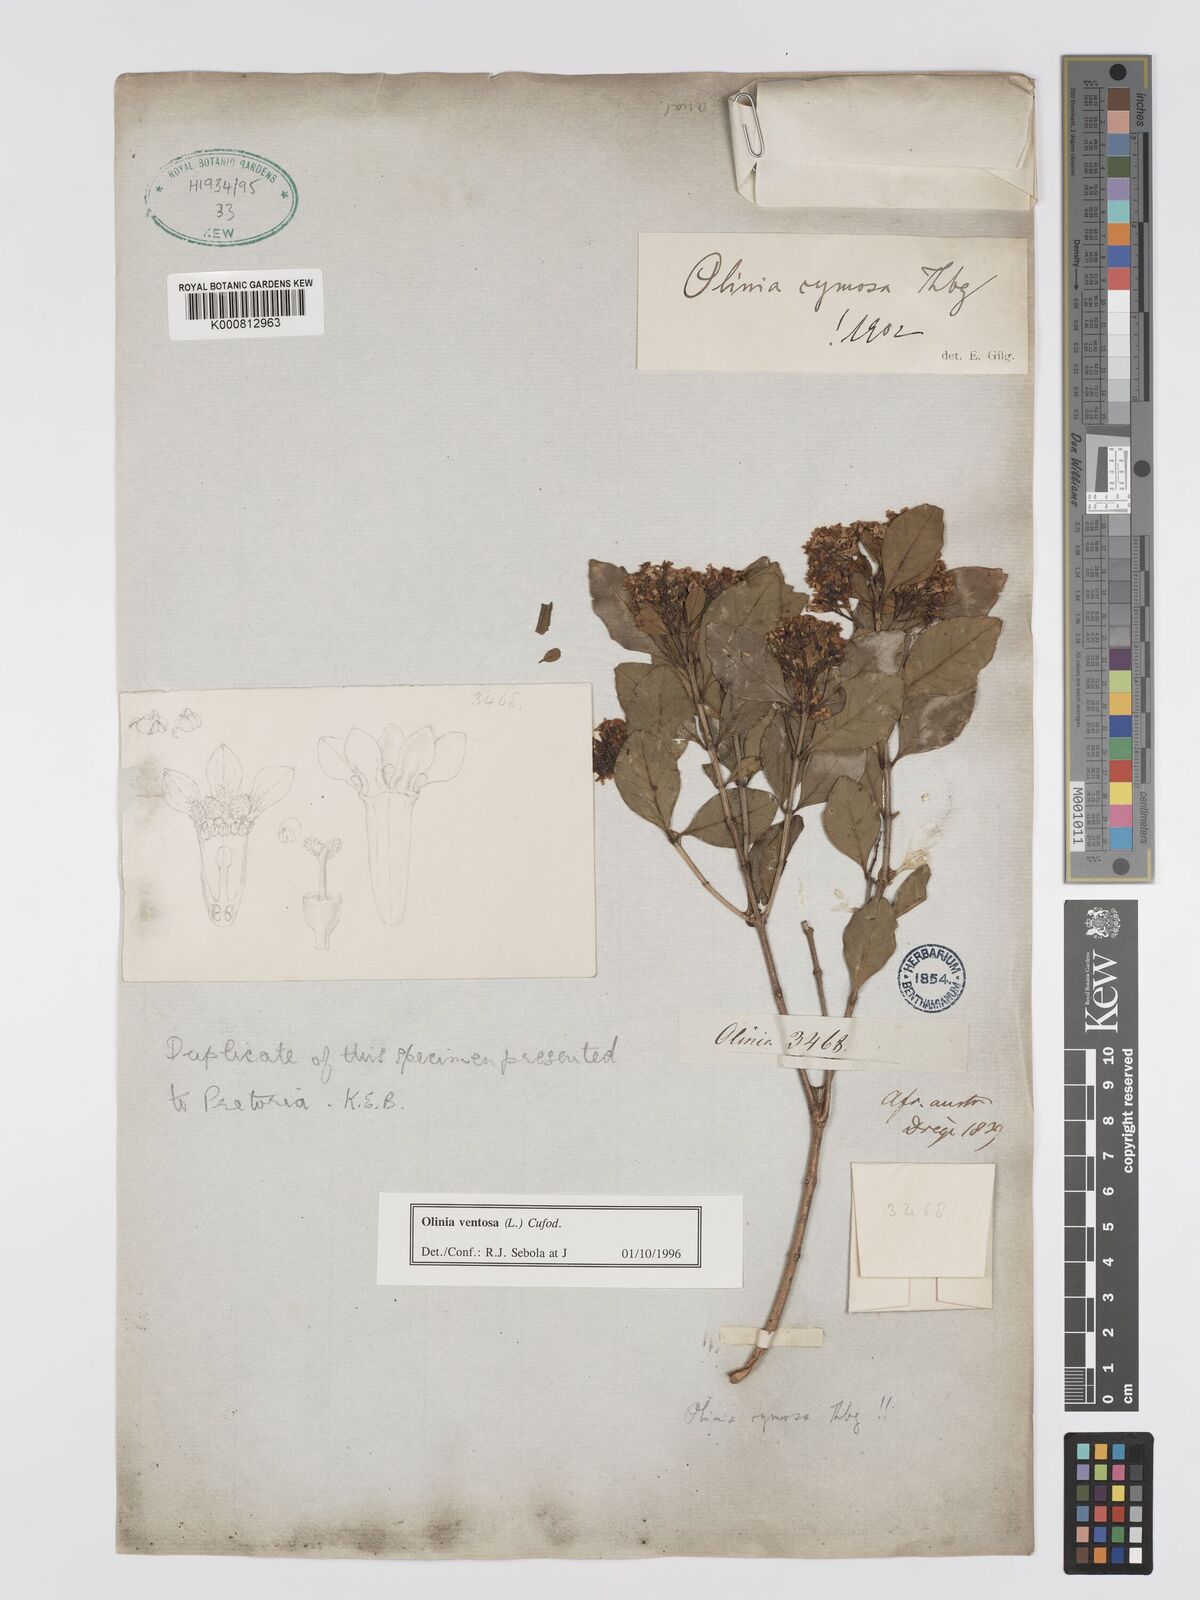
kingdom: Plantae
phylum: Tracheophyta
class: Magnoliopsida
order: Myrtales
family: Penaeaceae
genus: Olinia
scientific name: Olinia ventosa
